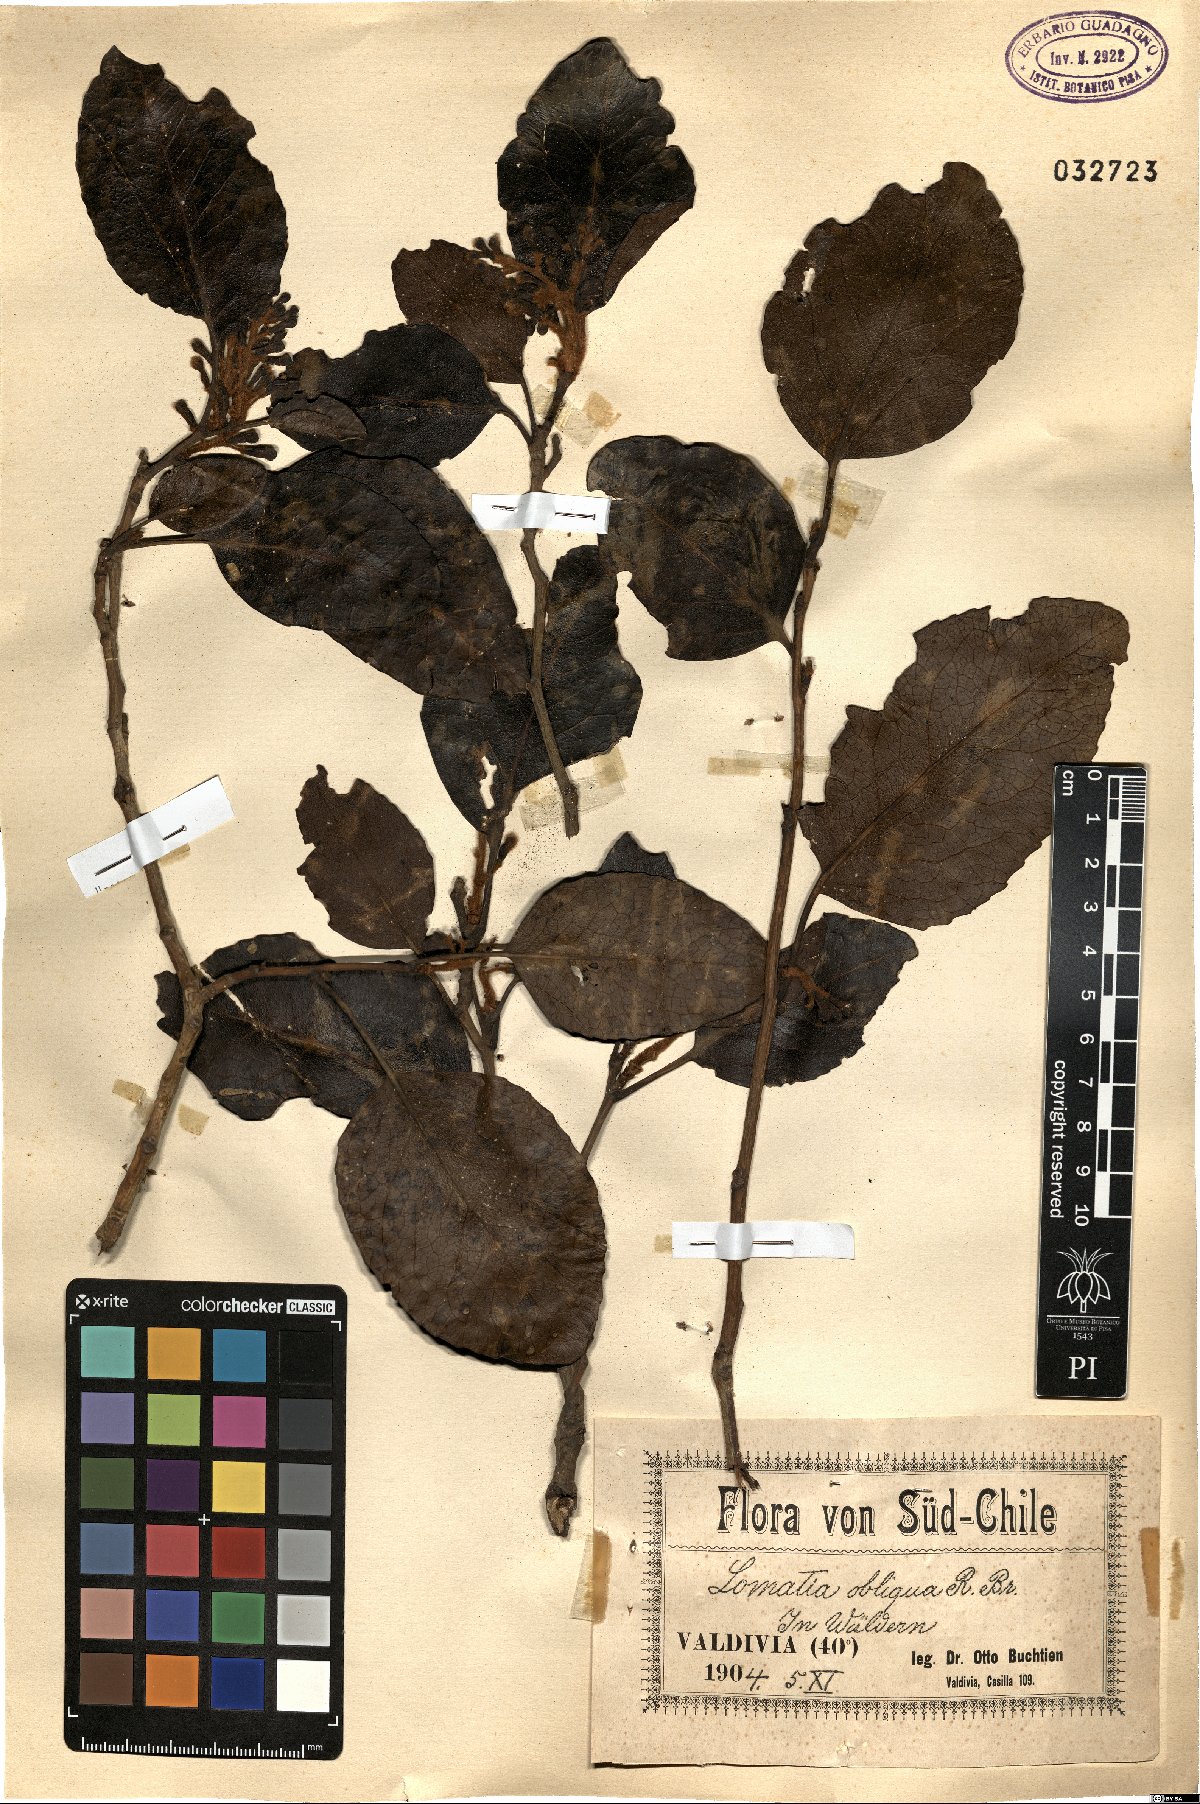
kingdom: Plantae
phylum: Tracheophyta
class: Magnoliopsida
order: Proteales
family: Proteaceae
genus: Lomatia
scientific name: Lomatia hirsuta
